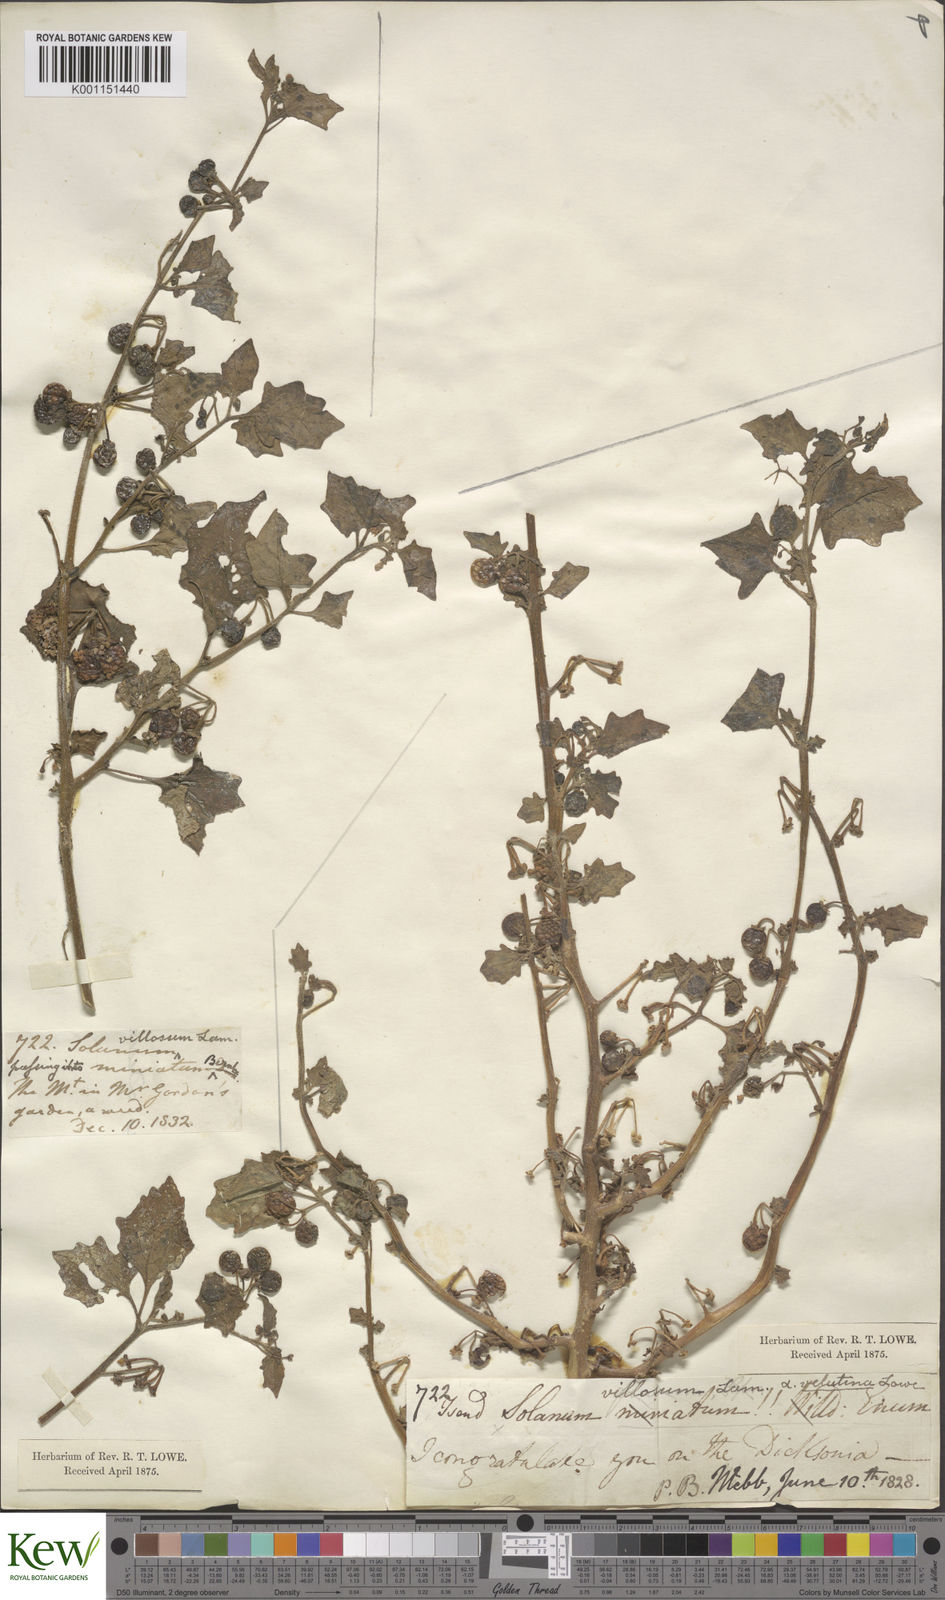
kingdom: Plantae
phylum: Tracheophyta
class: Magnoliopsida
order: Solanales
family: Solanaceae
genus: Solanum
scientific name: Solanum villosum
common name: Red nightshade
